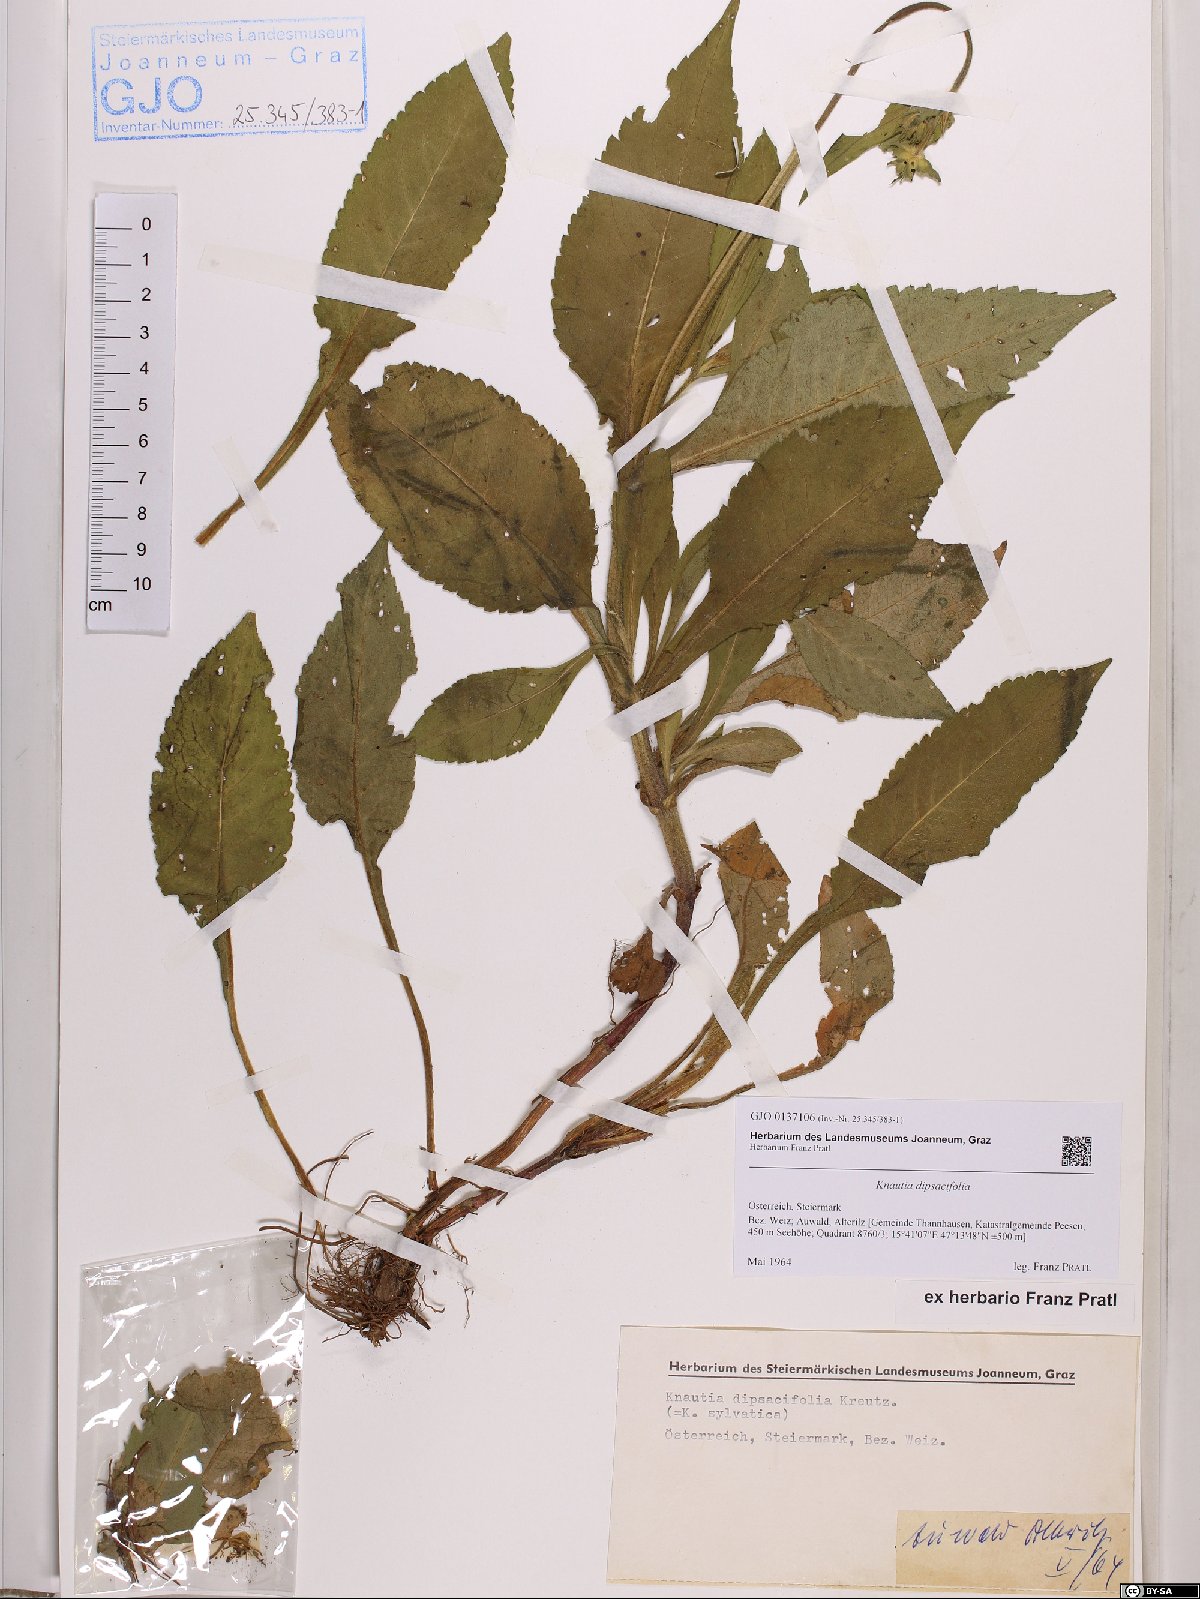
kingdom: Plantae
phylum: Tracheophyta
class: Magnoliopsida
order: Dipsacales
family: Caprifoliaceae
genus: Knautia
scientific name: Knautia dipsacifolia
